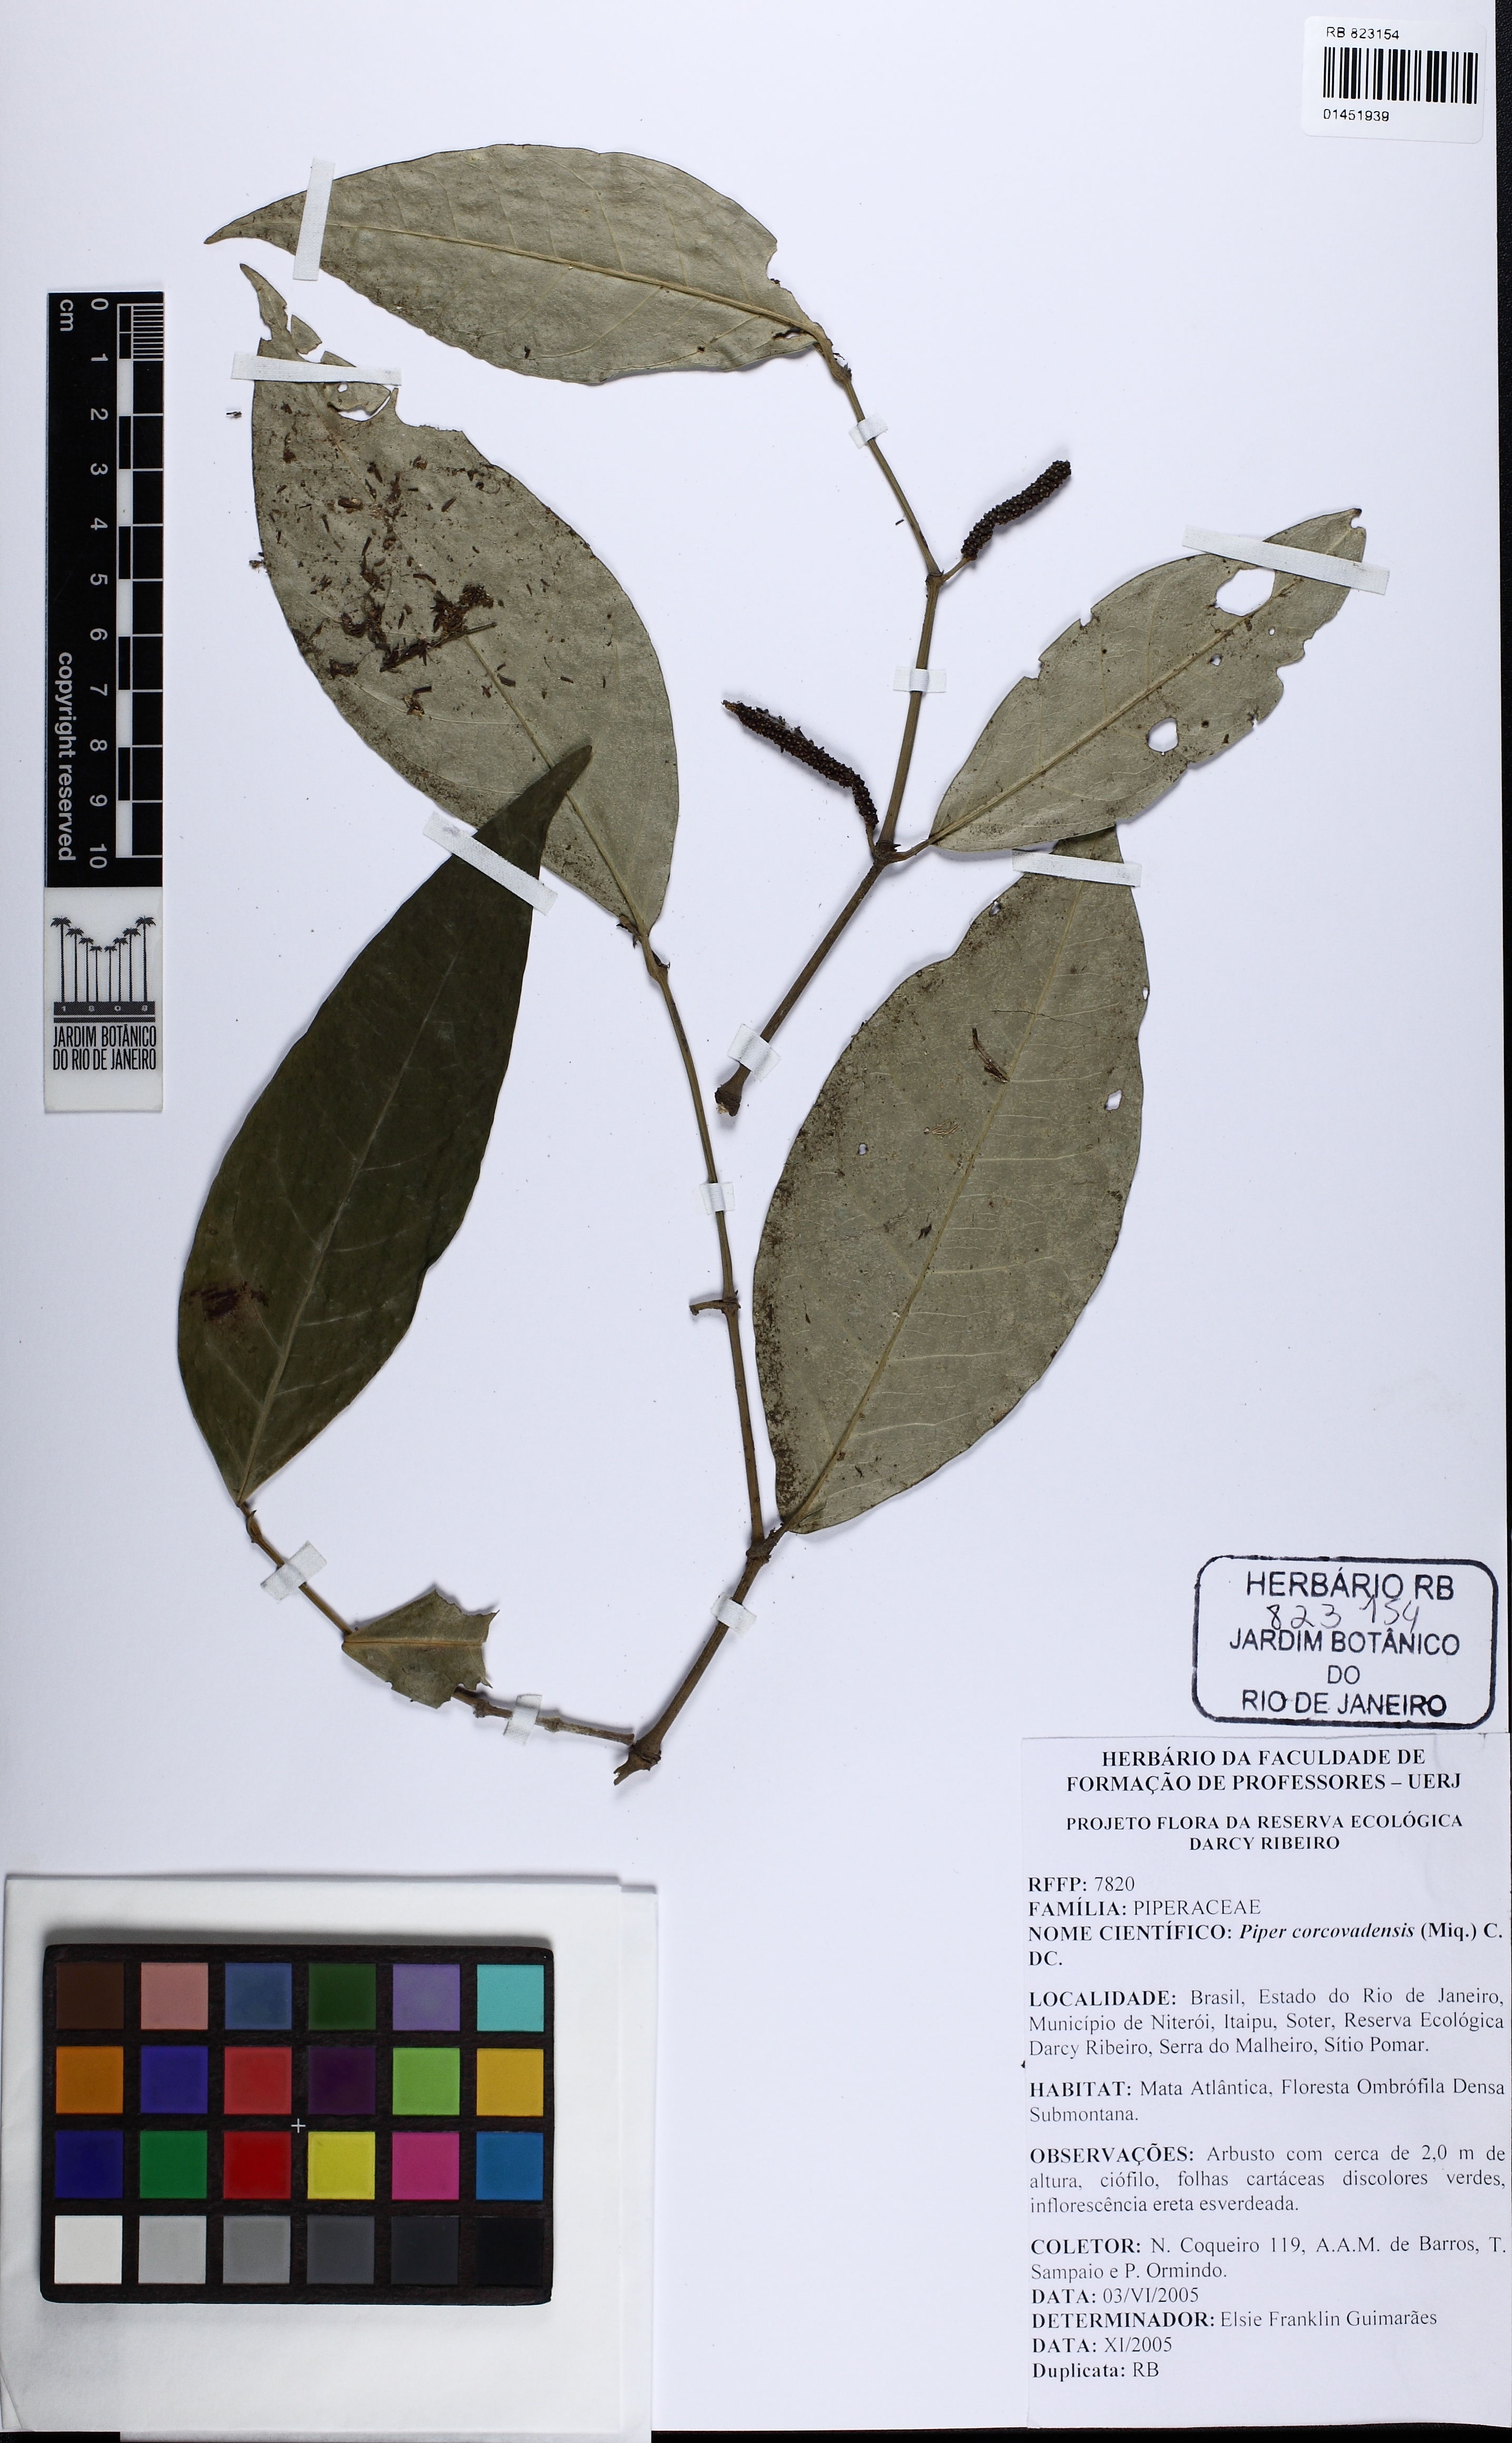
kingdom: Plantae
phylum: Tracheophyta
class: Magnoliopsida
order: Piperales
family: Piperaceae
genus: Piper
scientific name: Piper corcovadense
